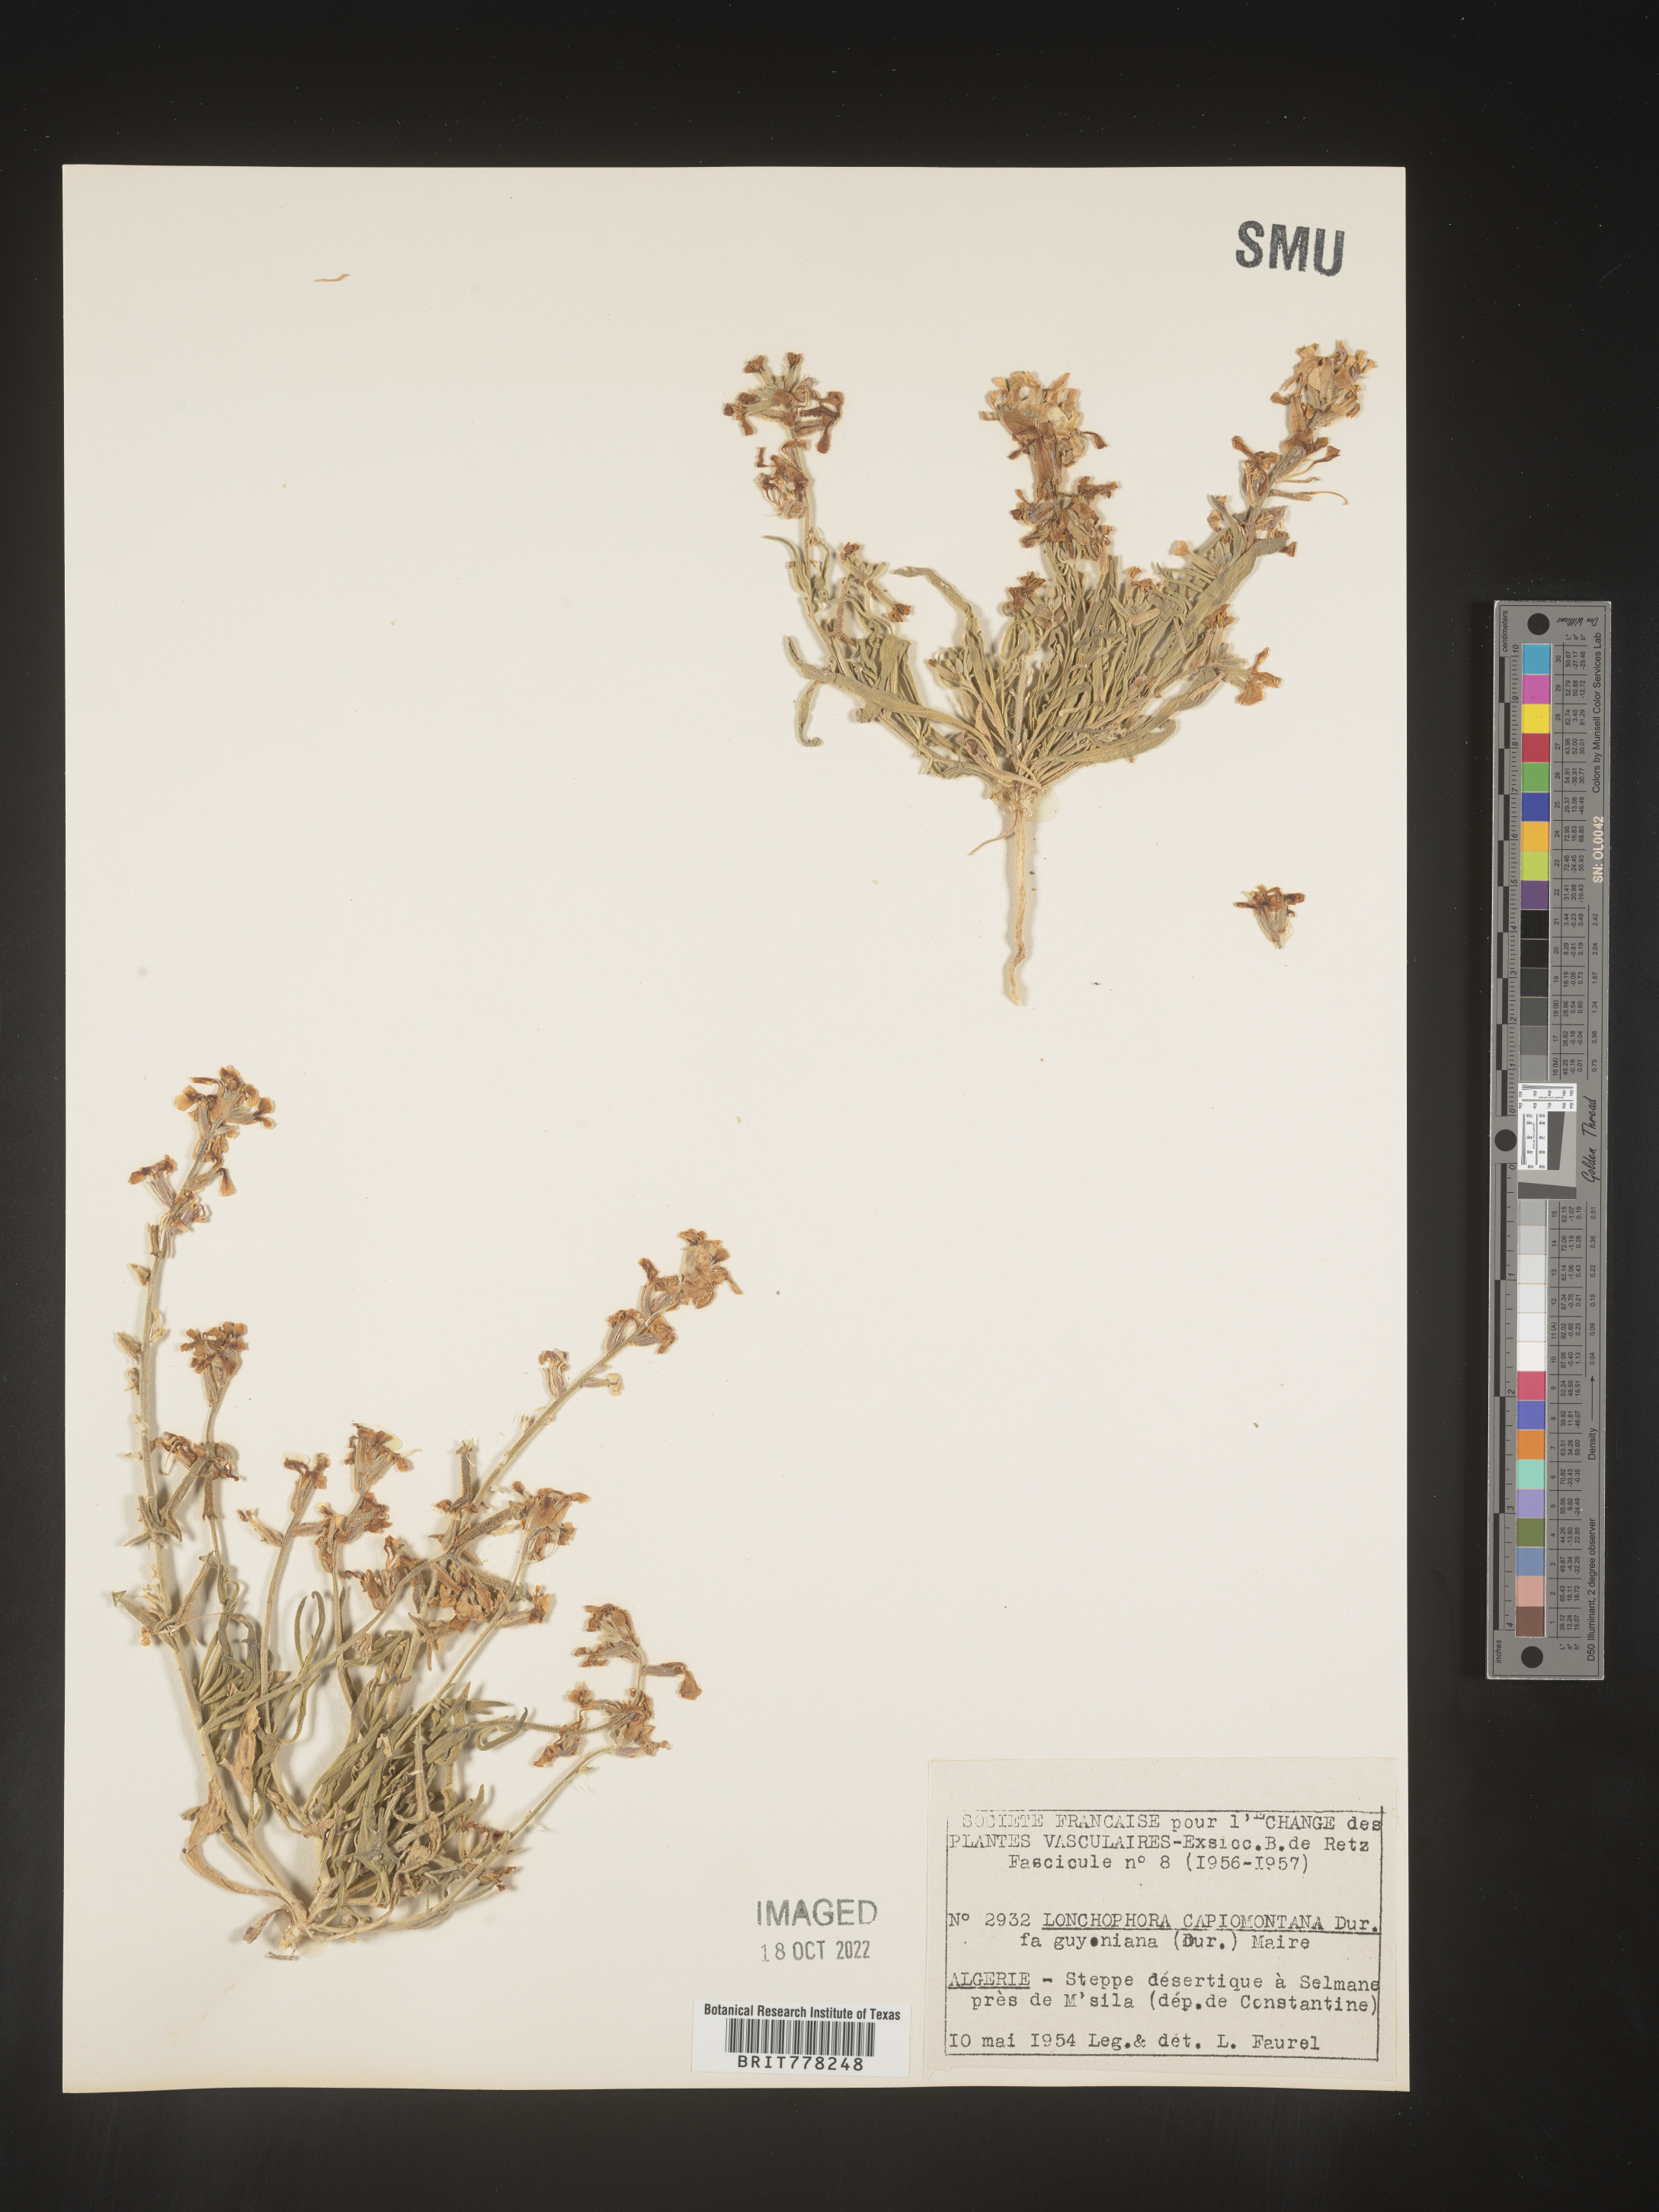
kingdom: Plantae
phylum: Tracheophyta
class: Magnoliopsida
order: Brassicales
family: Brassicaceae
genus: Lonchophora
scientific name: Lonchophora
